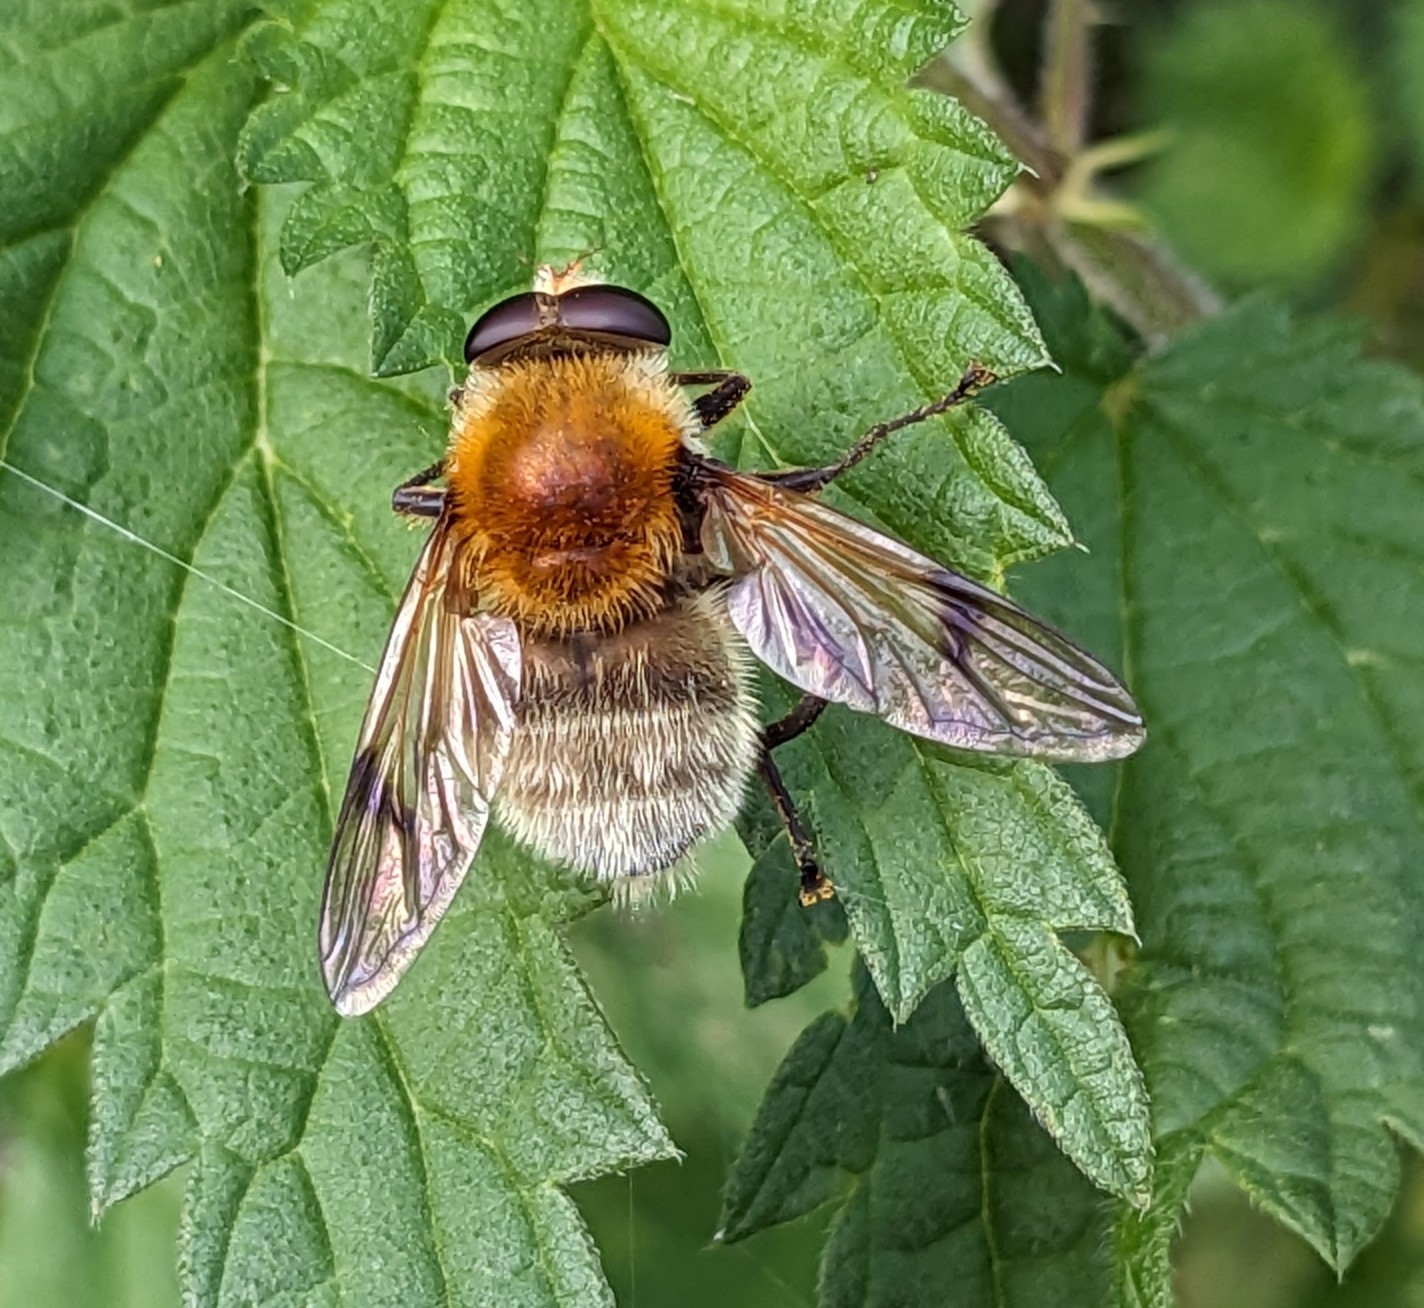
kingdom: Animalia
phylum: Arthropoda
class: Insecta
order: Diptera
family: Syrphidae
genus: Sericomyia
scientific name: Sericomyia superbiens
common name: Brun bjørnesvirreflue
